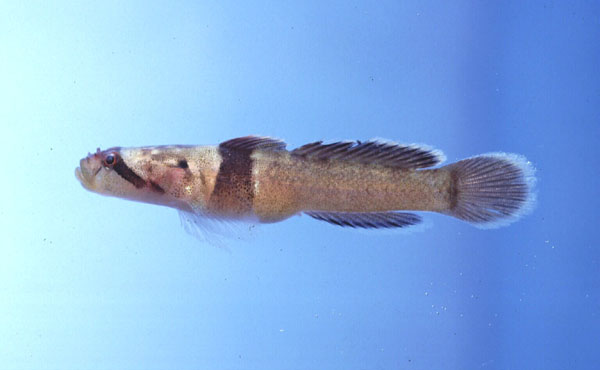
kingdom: Animalia
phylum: Chordata
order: Perciformes
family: Gobiidae
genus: Hetereleotris
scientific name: Hetereleotris zonata
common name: Goggles
